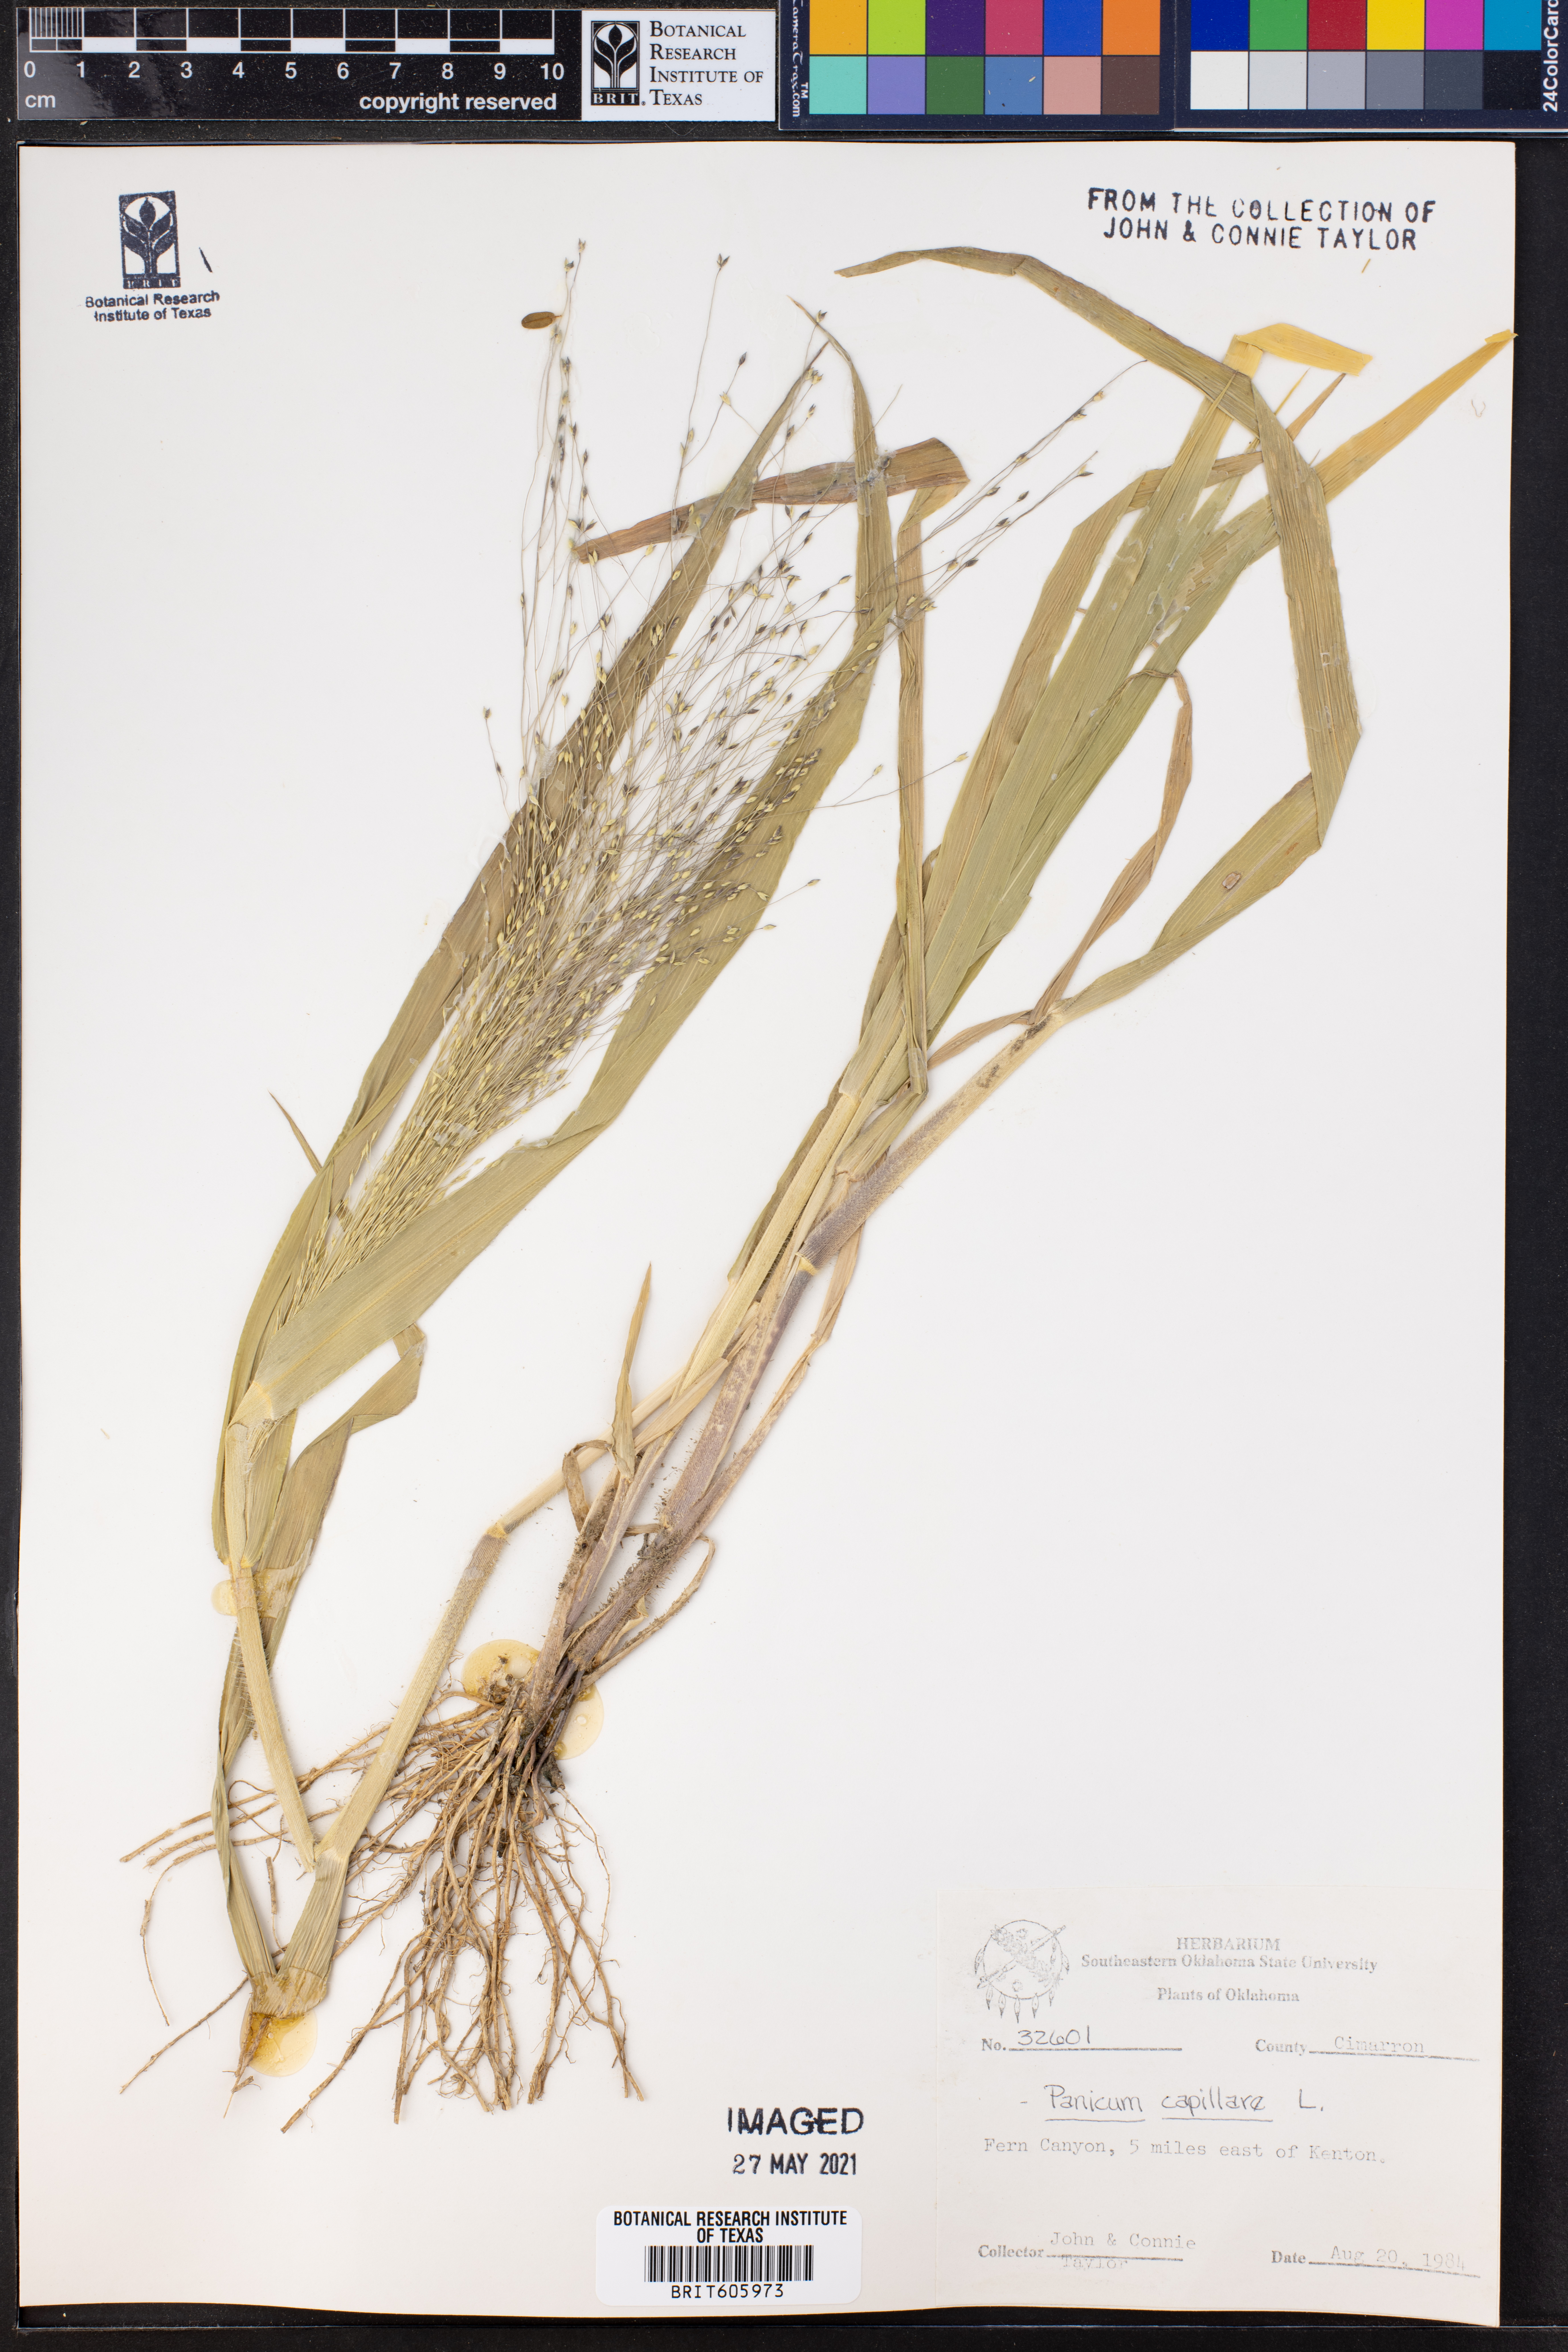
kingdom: Plantae
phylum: Tracheophyta
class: Liliopsida
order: Poales
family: Poaceae
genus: Panicum
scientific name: Panicum capillare
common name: Witch-grass
